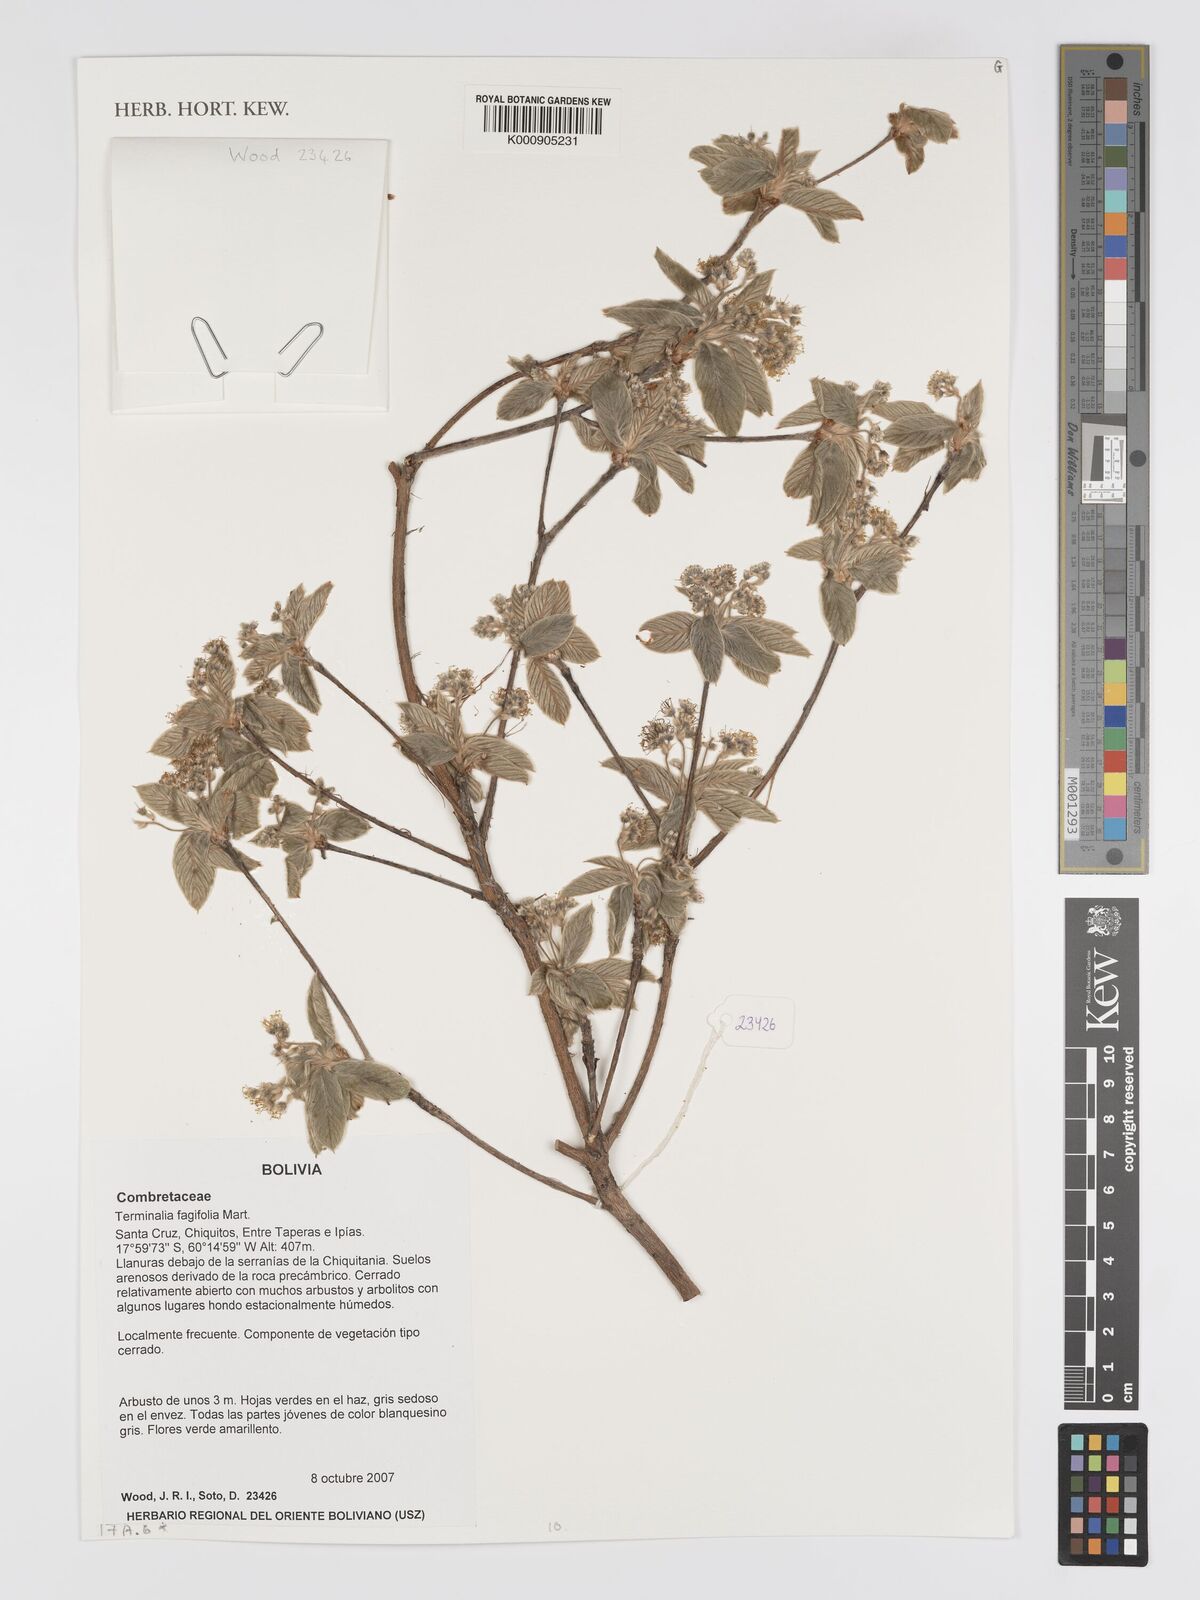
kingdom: Plantae
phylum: Tracheophyta
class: Magnoliopsida
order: Myrtales
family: Combretaceae
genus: Terminalia
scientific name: Terminalia fagifolia
